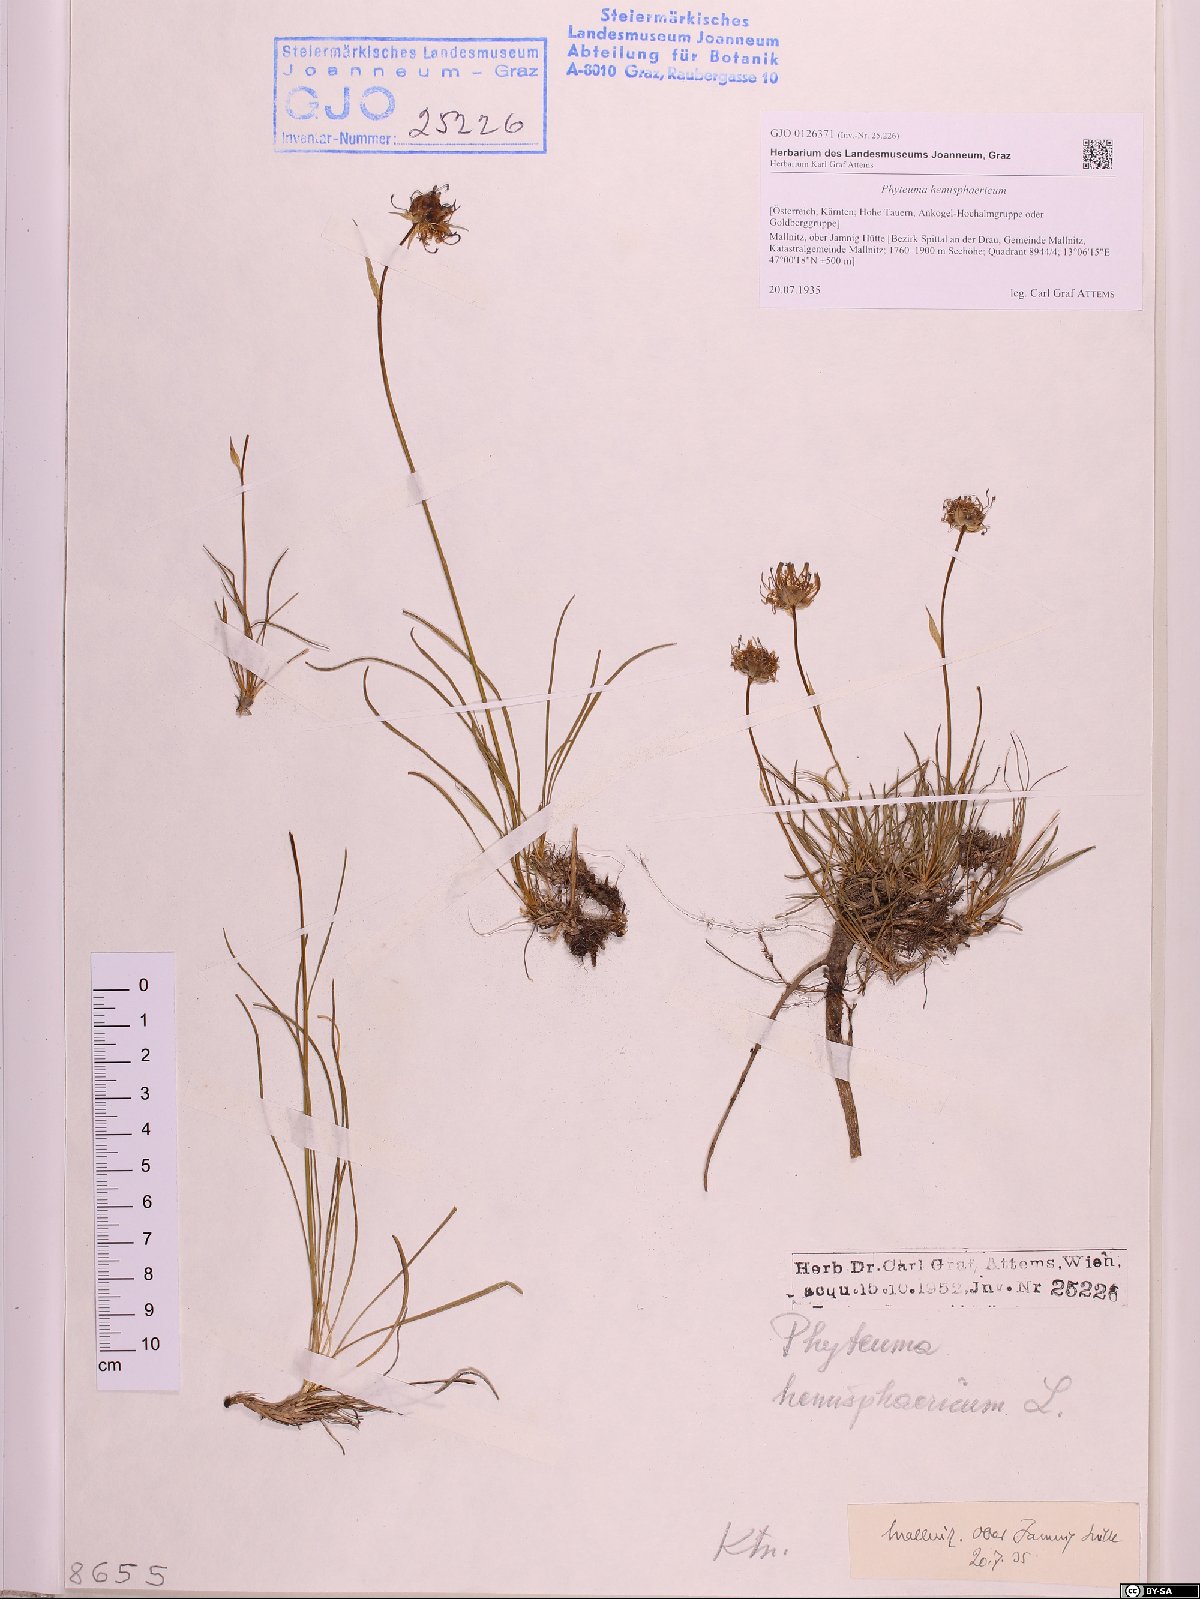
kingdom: Plantae
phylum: Tracheophyta
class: Magnoliopsida
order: Asterales
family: Campanulaceae
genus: Phyteuma
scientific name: Phyteuma hemisphaericum
